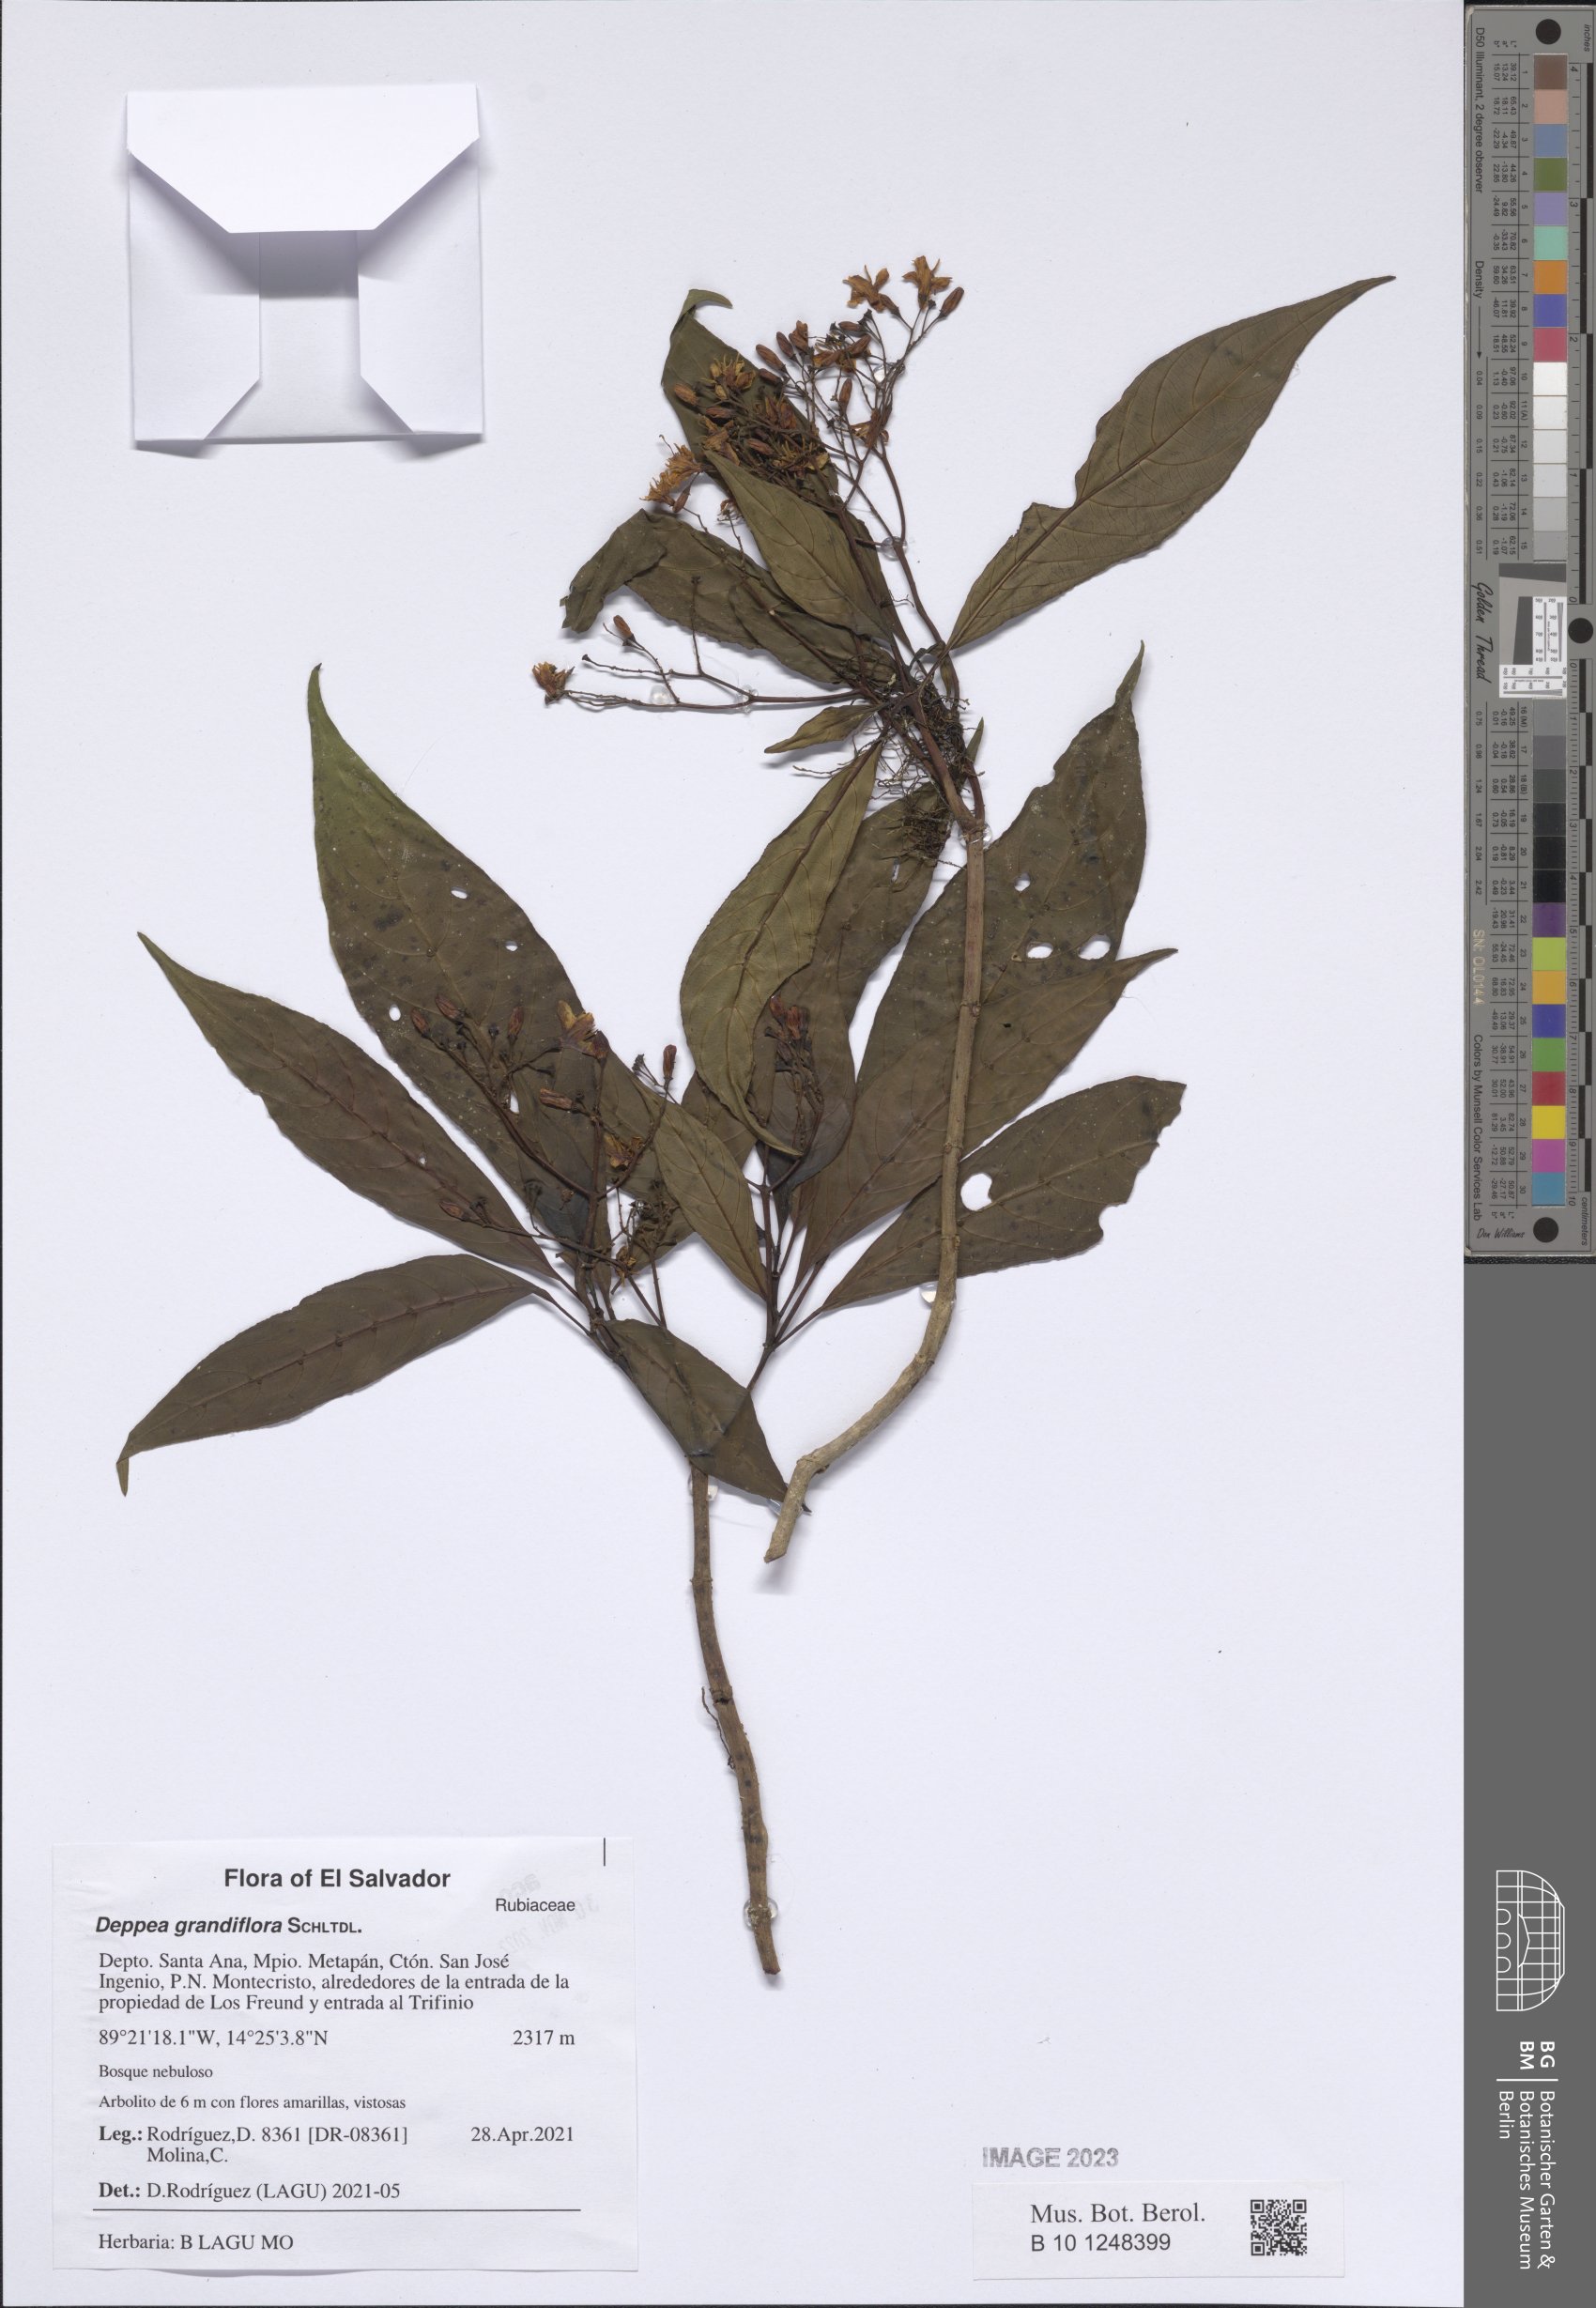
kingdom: Plantae
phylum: Tracheophyta
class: Magnoliopsida
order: Gentianales
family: Rubiaceae
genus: Deppea
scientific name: Deppea grandiflora
